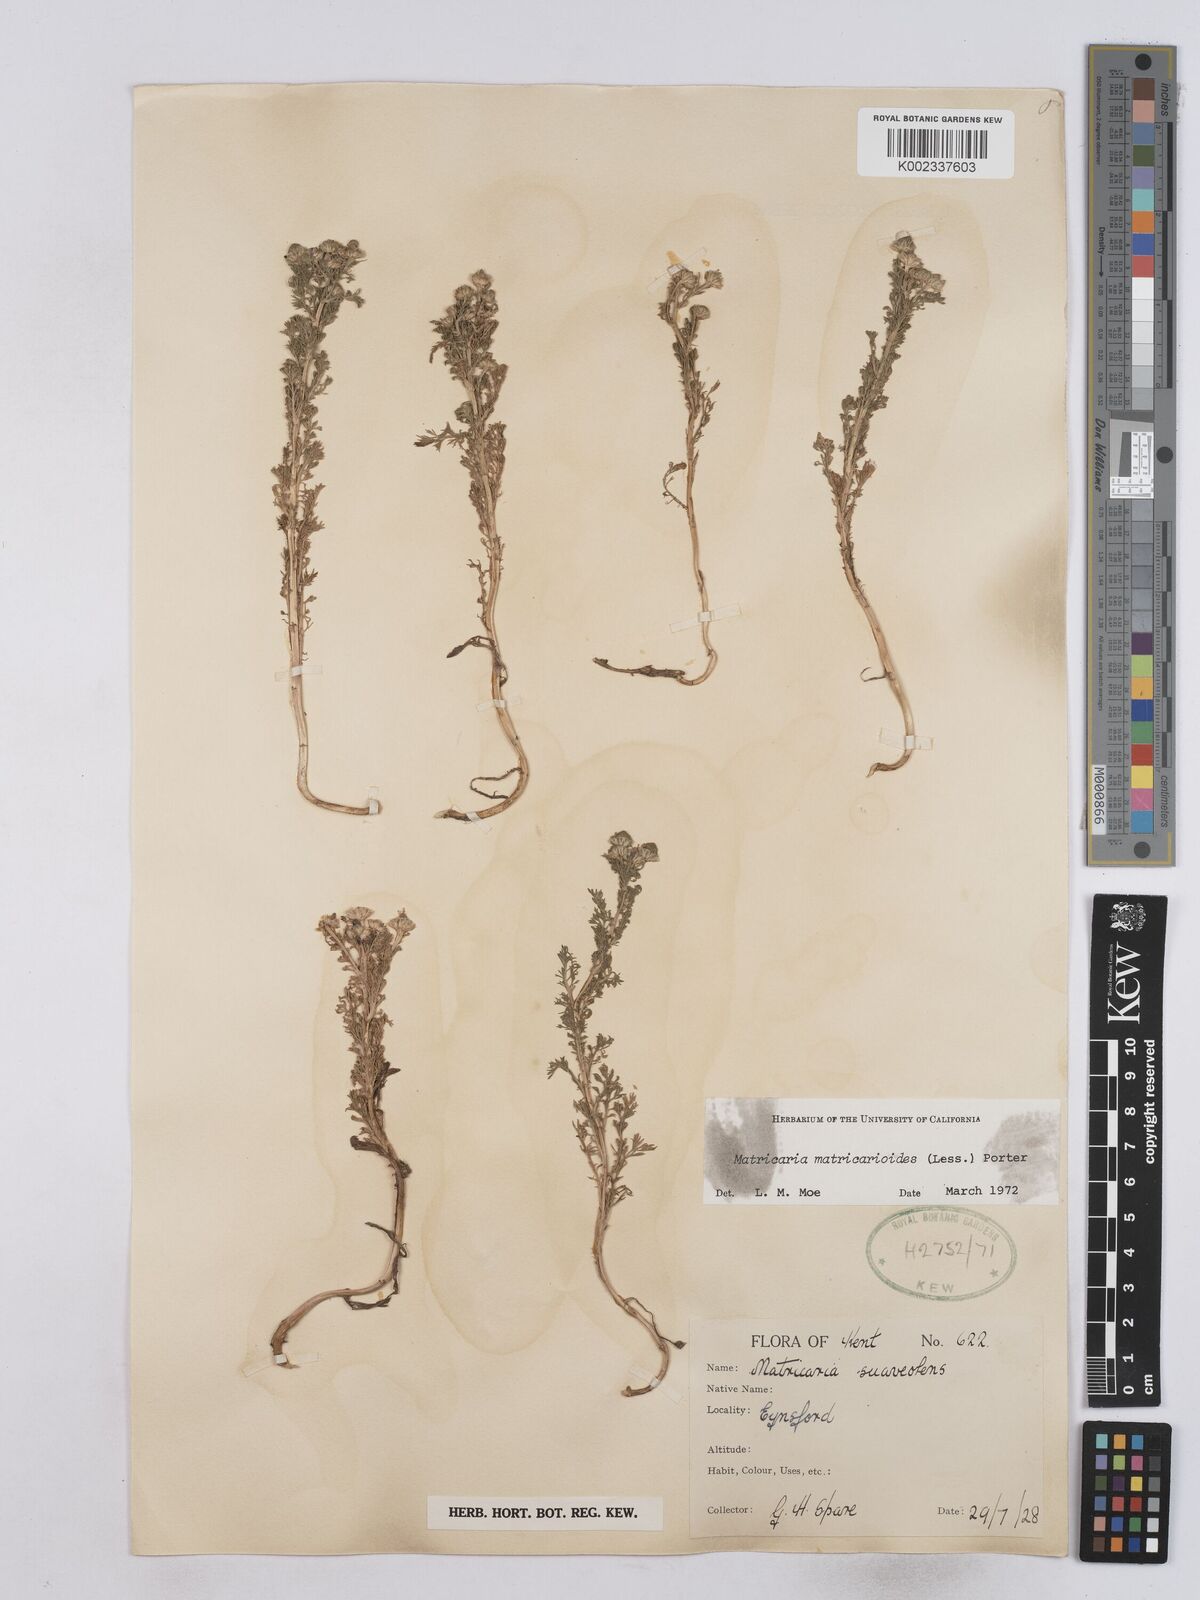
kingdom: Plantae
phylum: Tracheophyta
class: Magnoliopsida
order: Asterales
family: Asteraceae
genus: Matricaria
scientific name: Matricaria discoidea
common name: Disc mayweed
